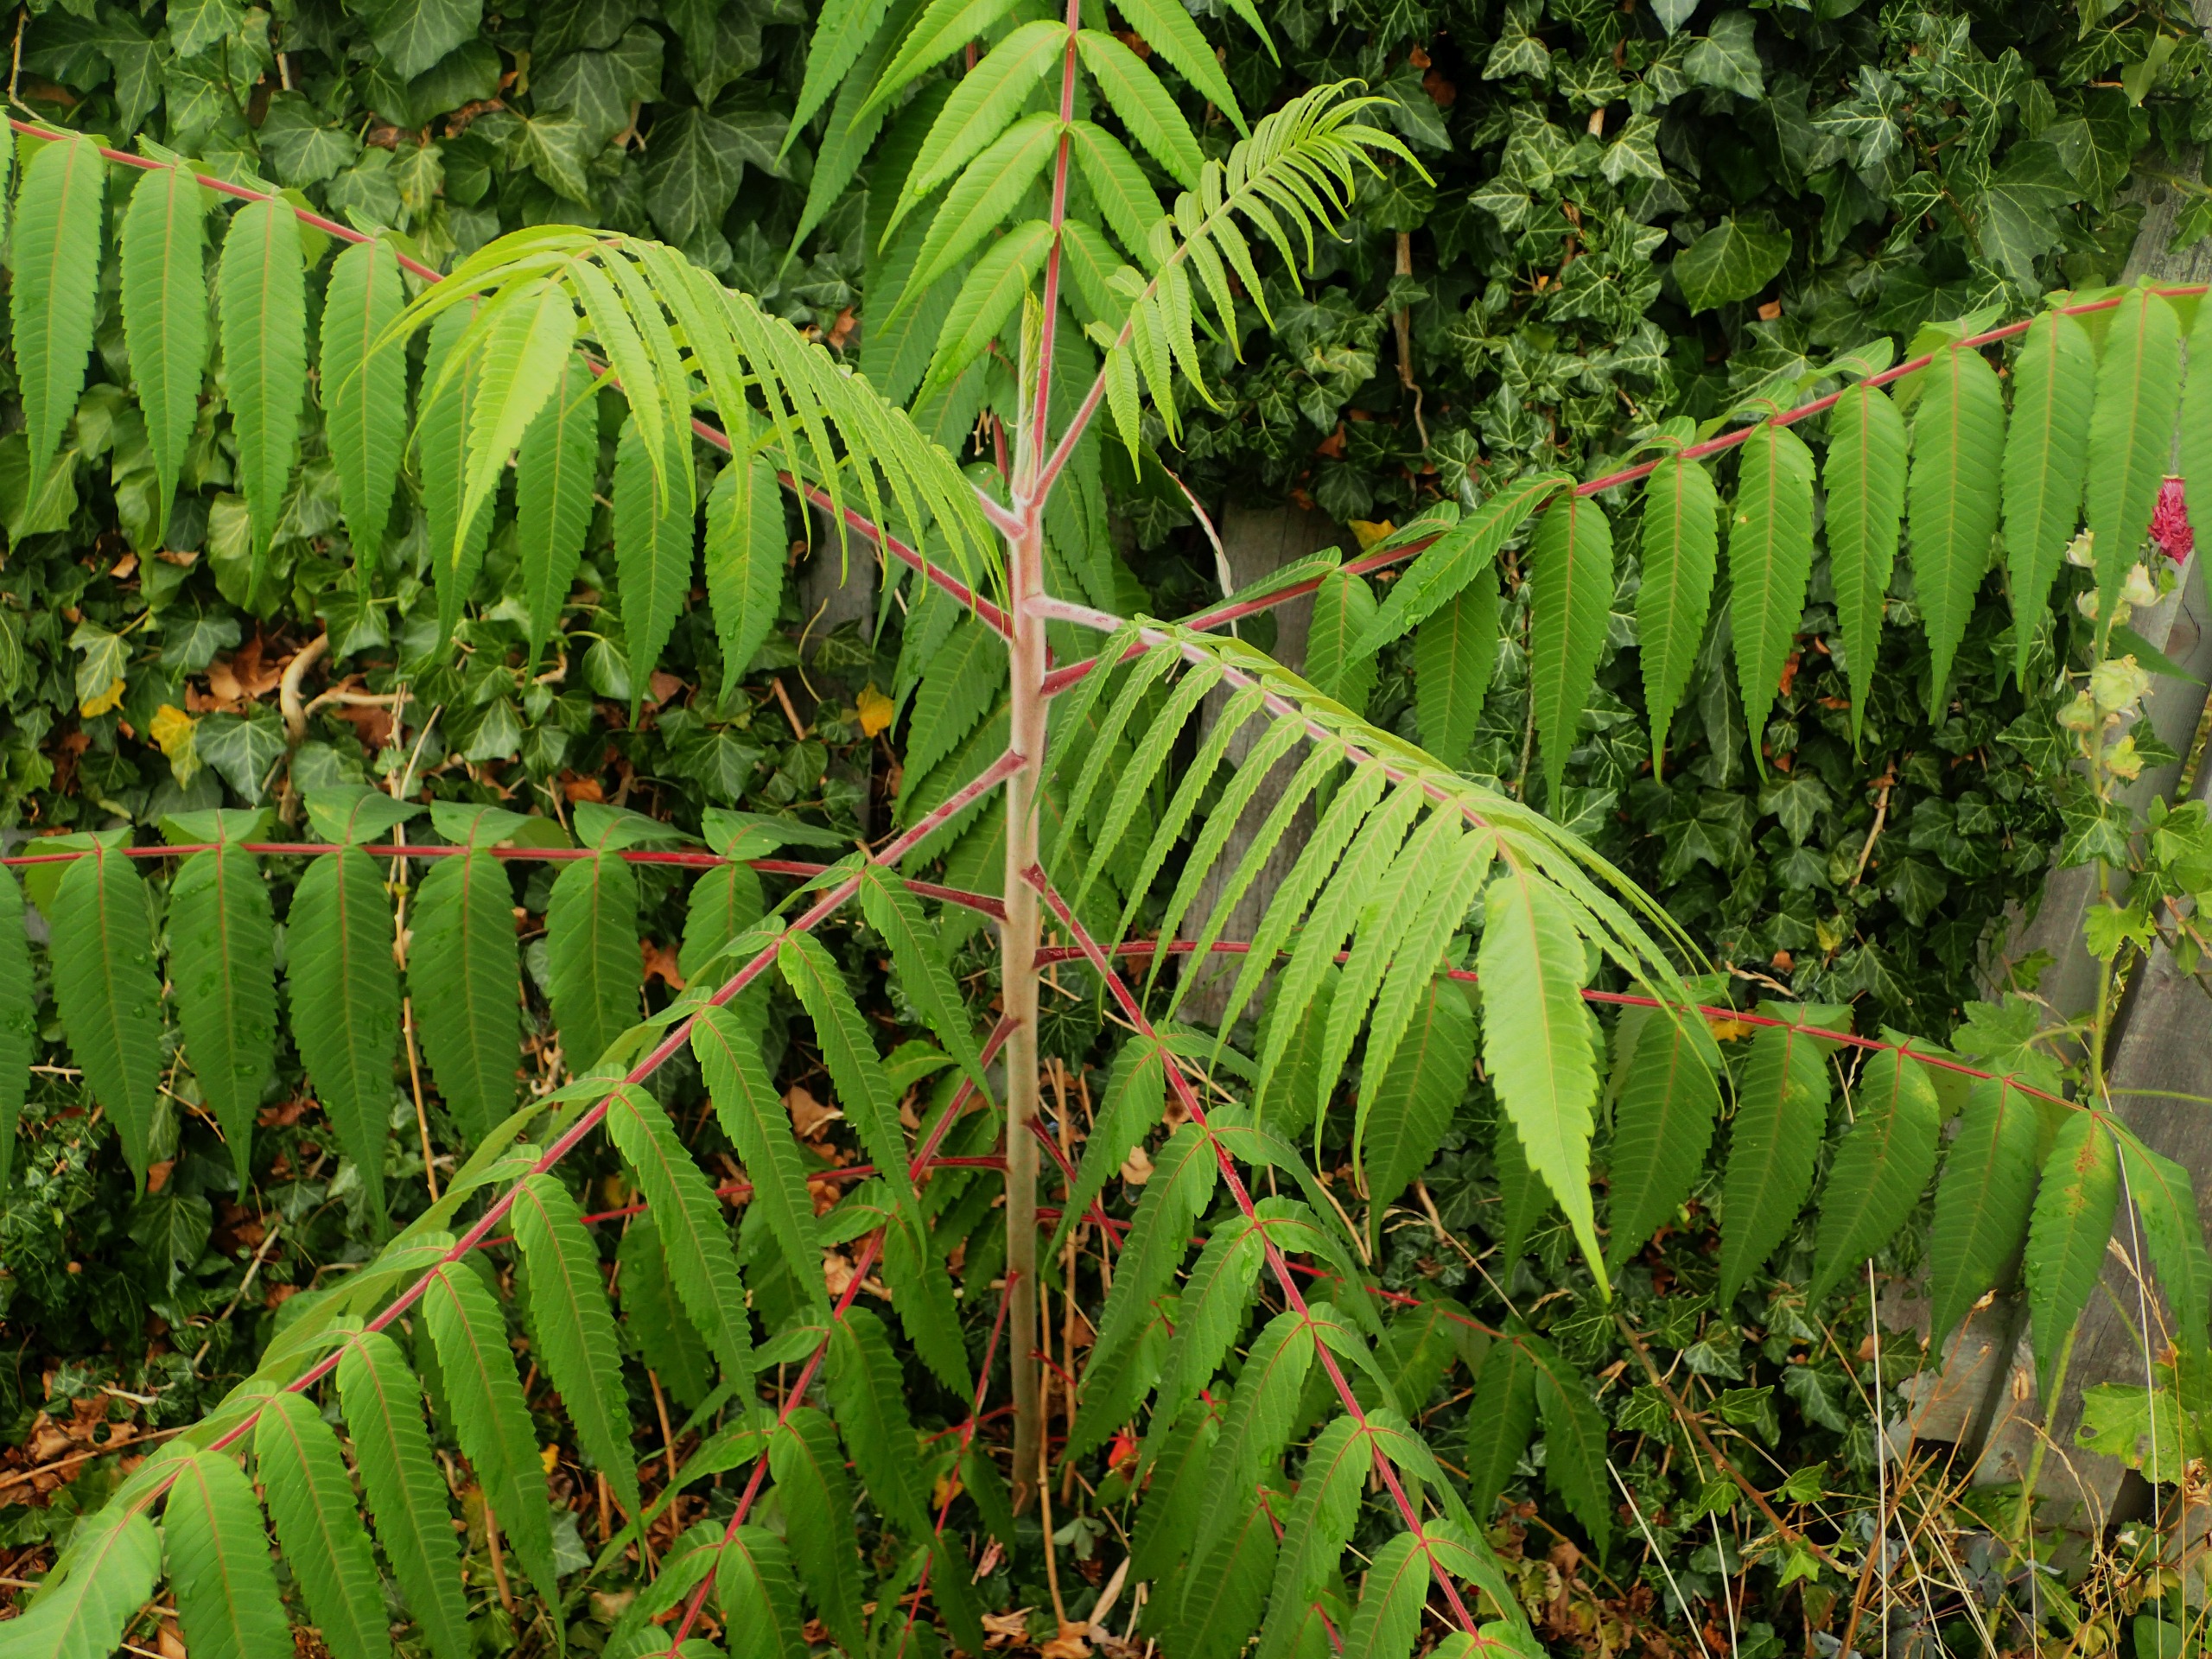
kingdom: Plantae
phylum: Tracheophyta
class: Magnoliopsida
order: Sapindales
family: Anacardiaceae
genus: Rhus
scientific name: Rhus typhina
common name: Hjortetaktræ
